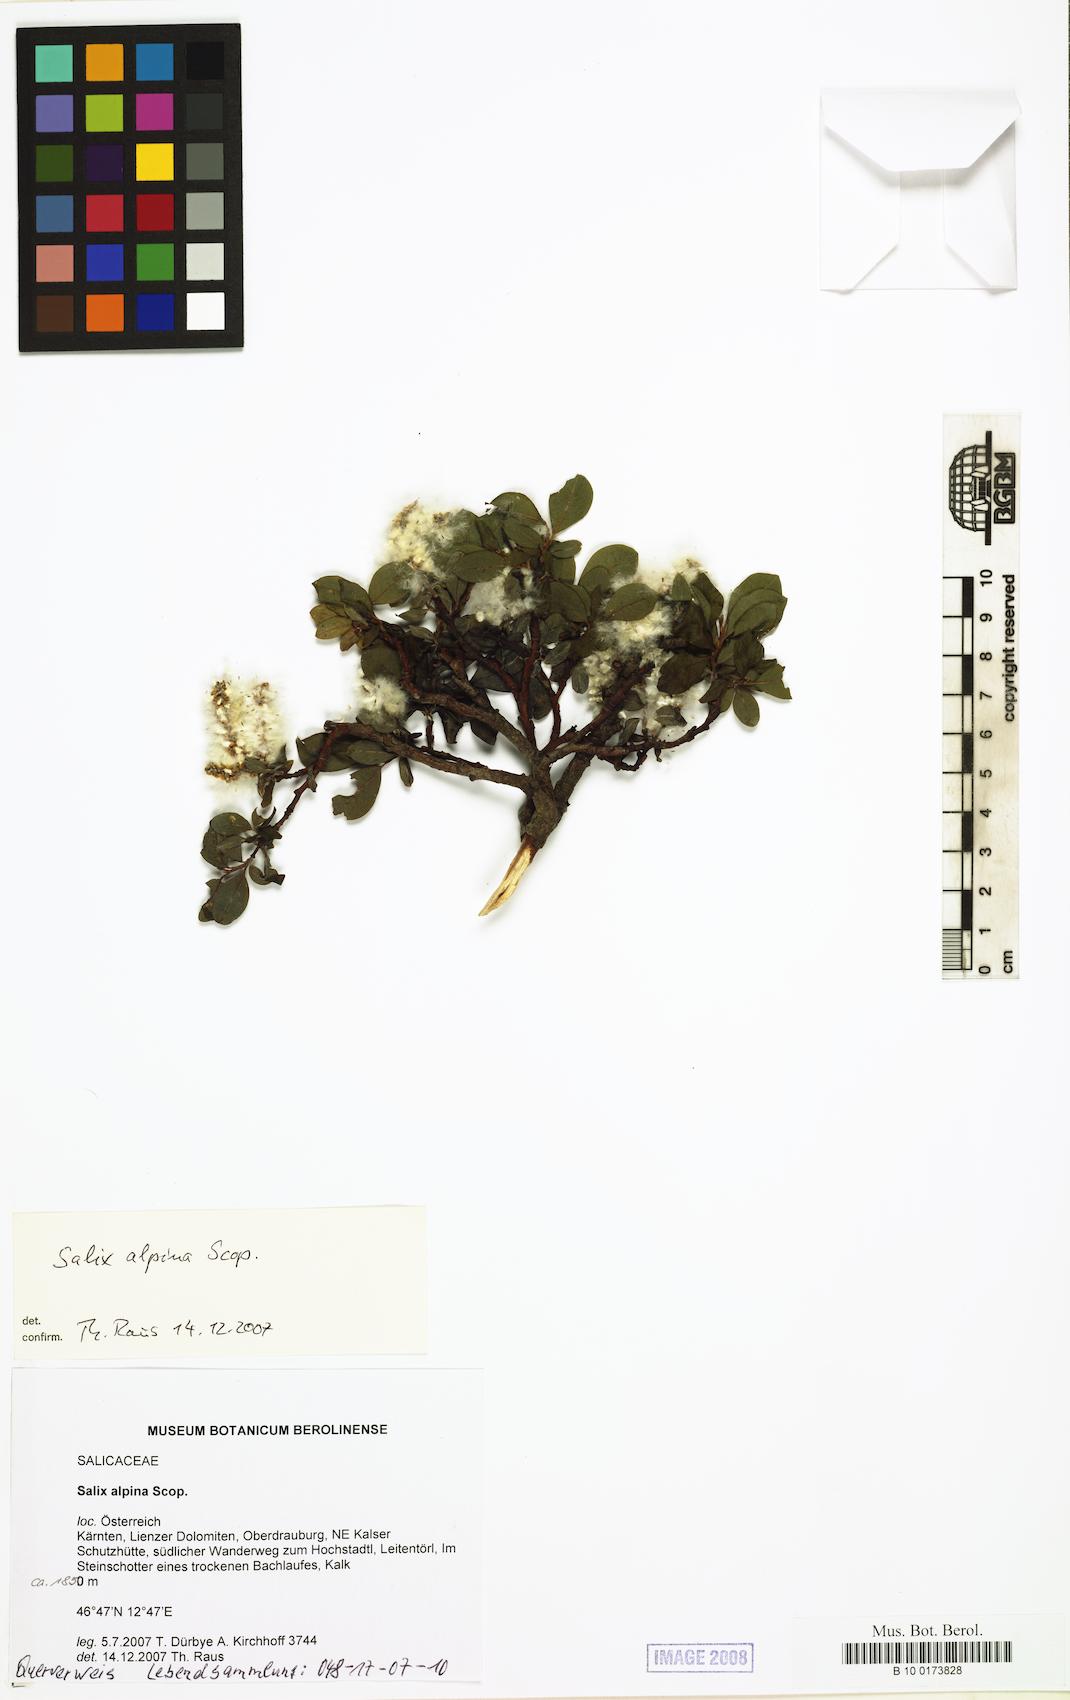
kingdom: Plantae
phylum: Tracheophyta
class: Magnoliopsida
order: Malpighiales
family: Salicaceae
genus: Salix
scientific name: Salix alpina
